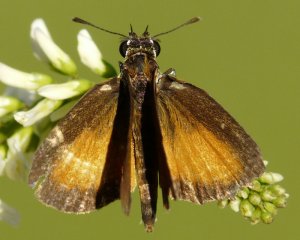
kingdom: Animalia
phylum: Arthropoda
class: Insecta
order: Lepidoptera
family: Hesperiidae
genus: Ancyloxypha
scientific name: Ancyloxypha numitor
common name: Least Skipper
